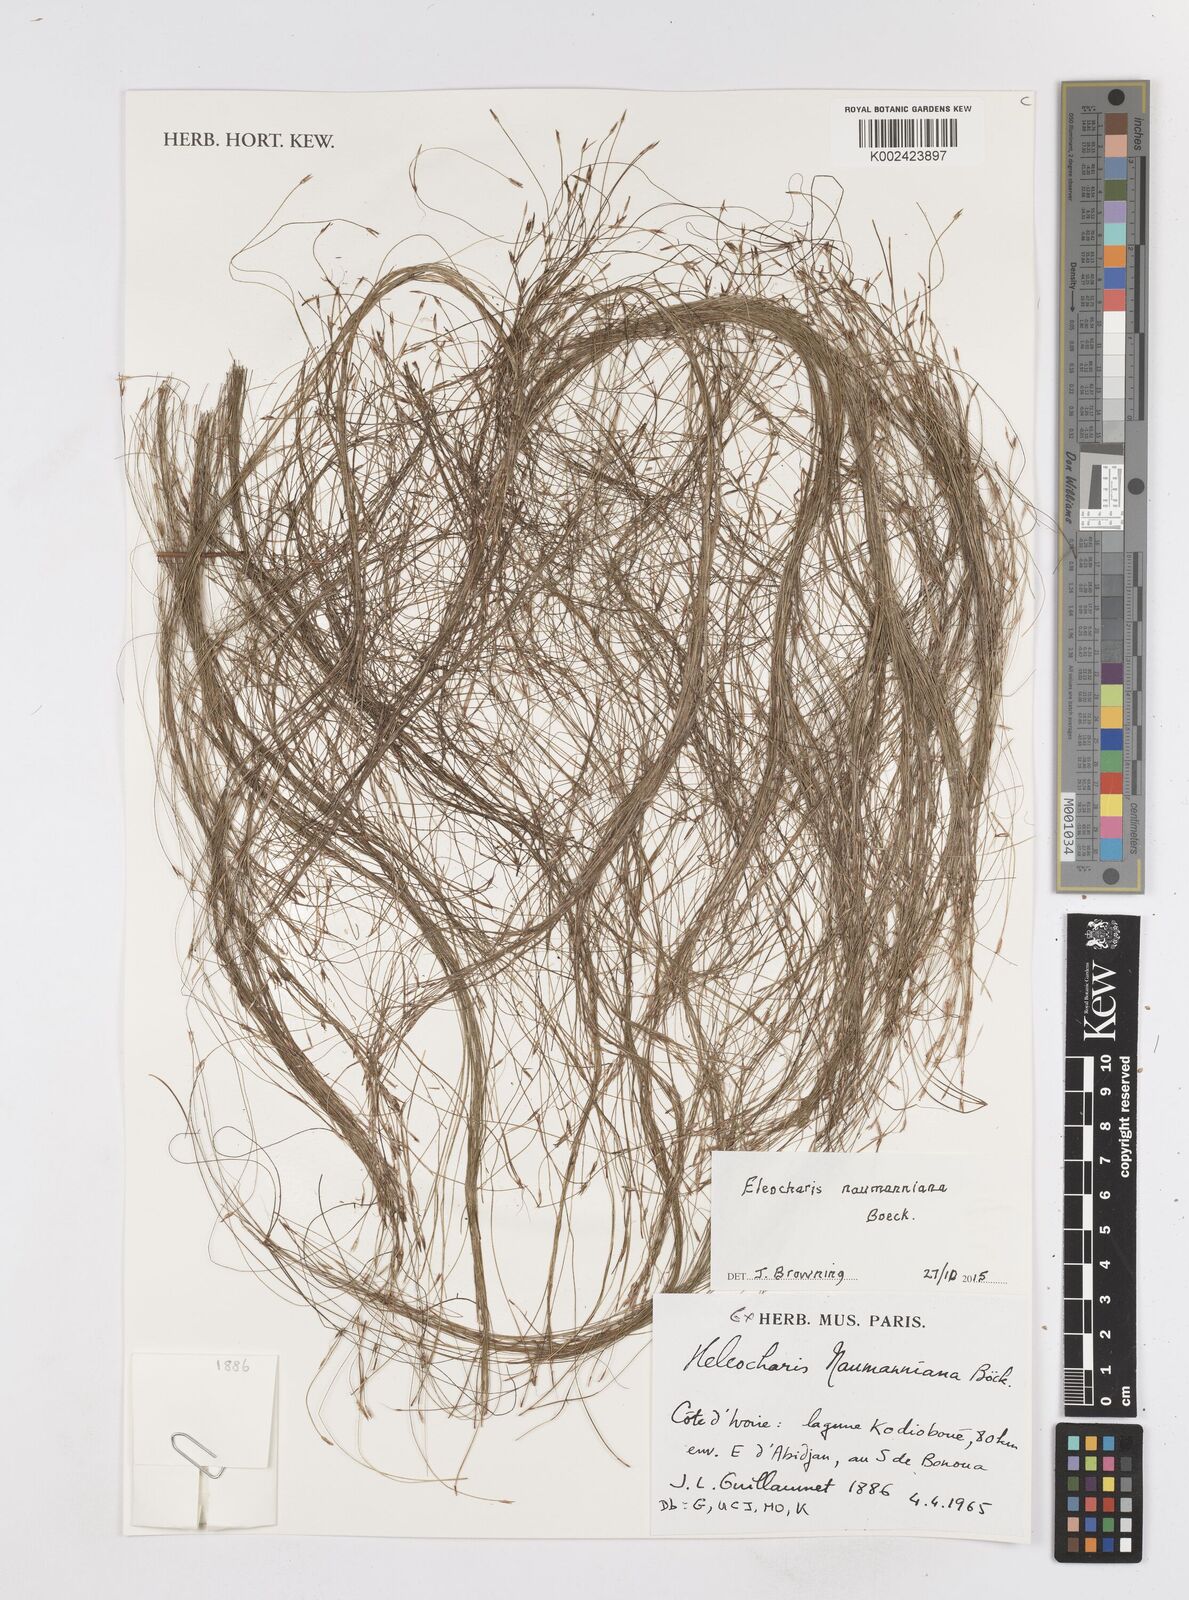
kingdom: Plantae
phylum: Tracheophyta
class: Liliopsida
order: Poales
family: Cyperaceae
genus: Eleocharis
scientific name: Eleocharis naumanniana
